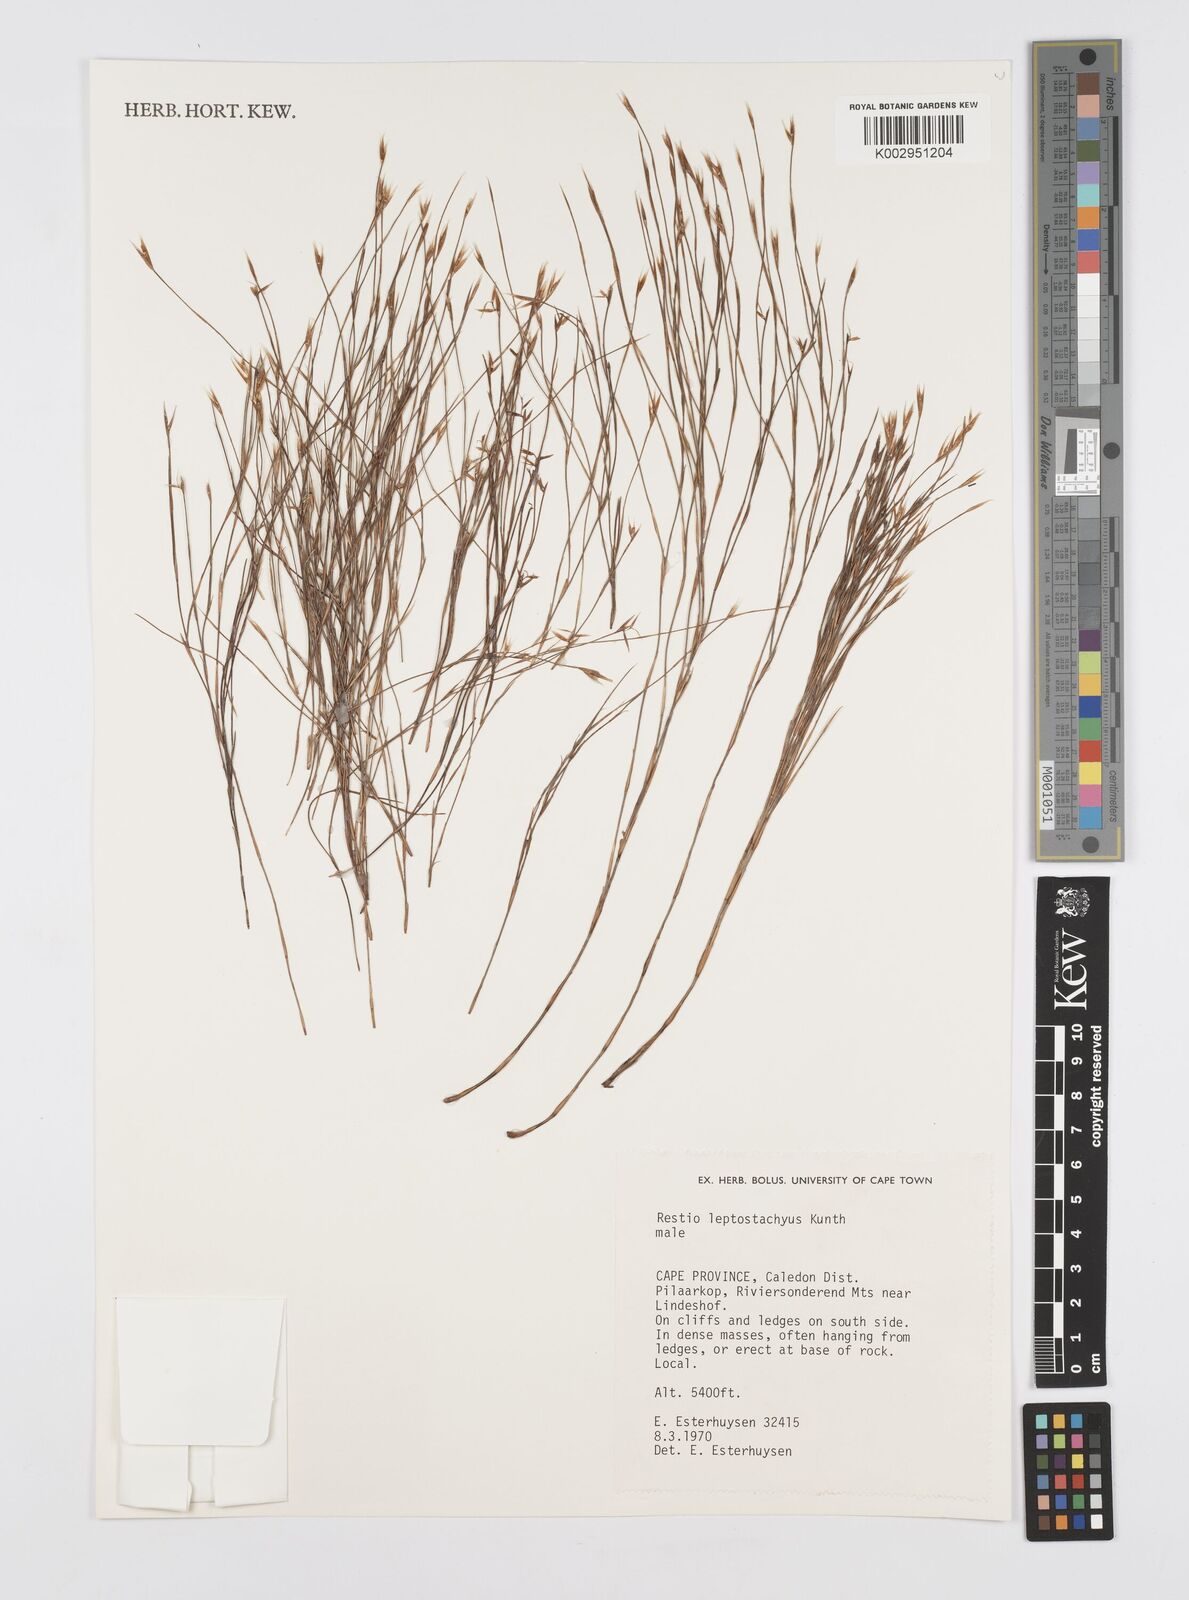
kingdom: Plantae
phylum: Tracheophyta
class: Liliopsida
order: Poales
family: Restionaceae
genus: Restio
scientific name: Restio leptostachyus
